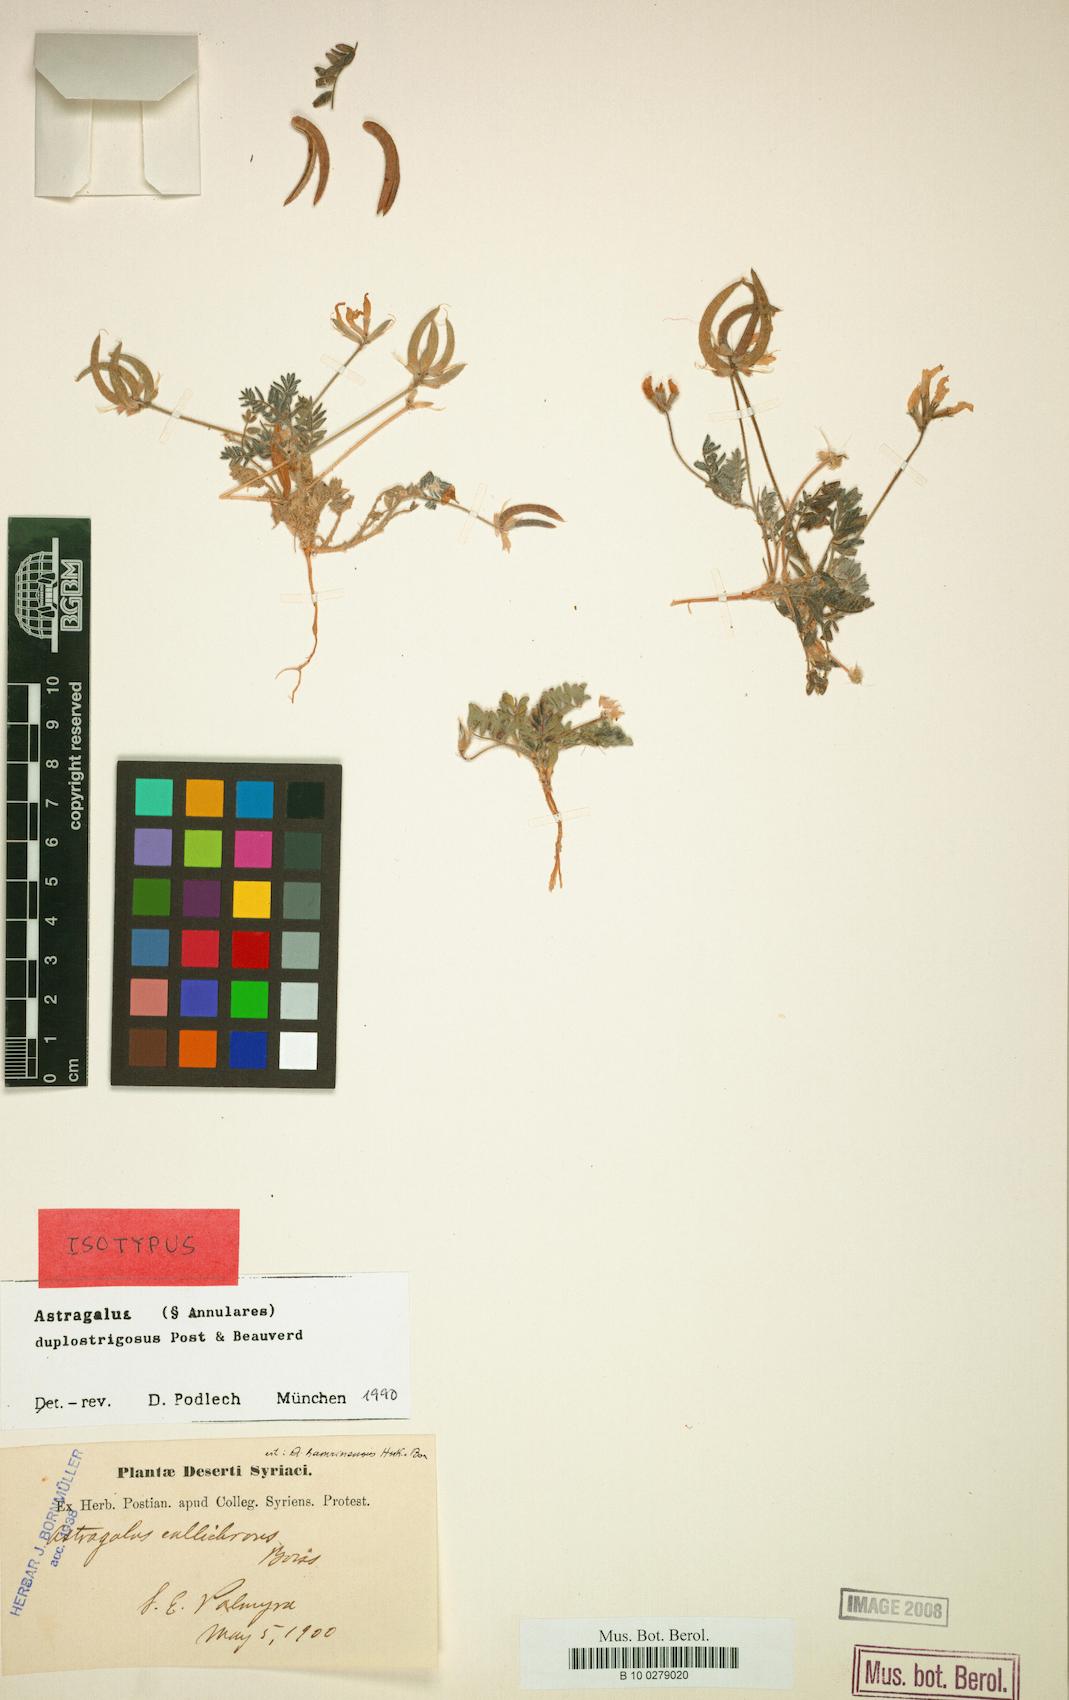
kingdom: Plantae
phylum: Tracheophyta
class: Magnoliopsida
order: Fabales
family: Fabaceae
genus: Astragalus
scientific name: Astragalus duplostrigosus
